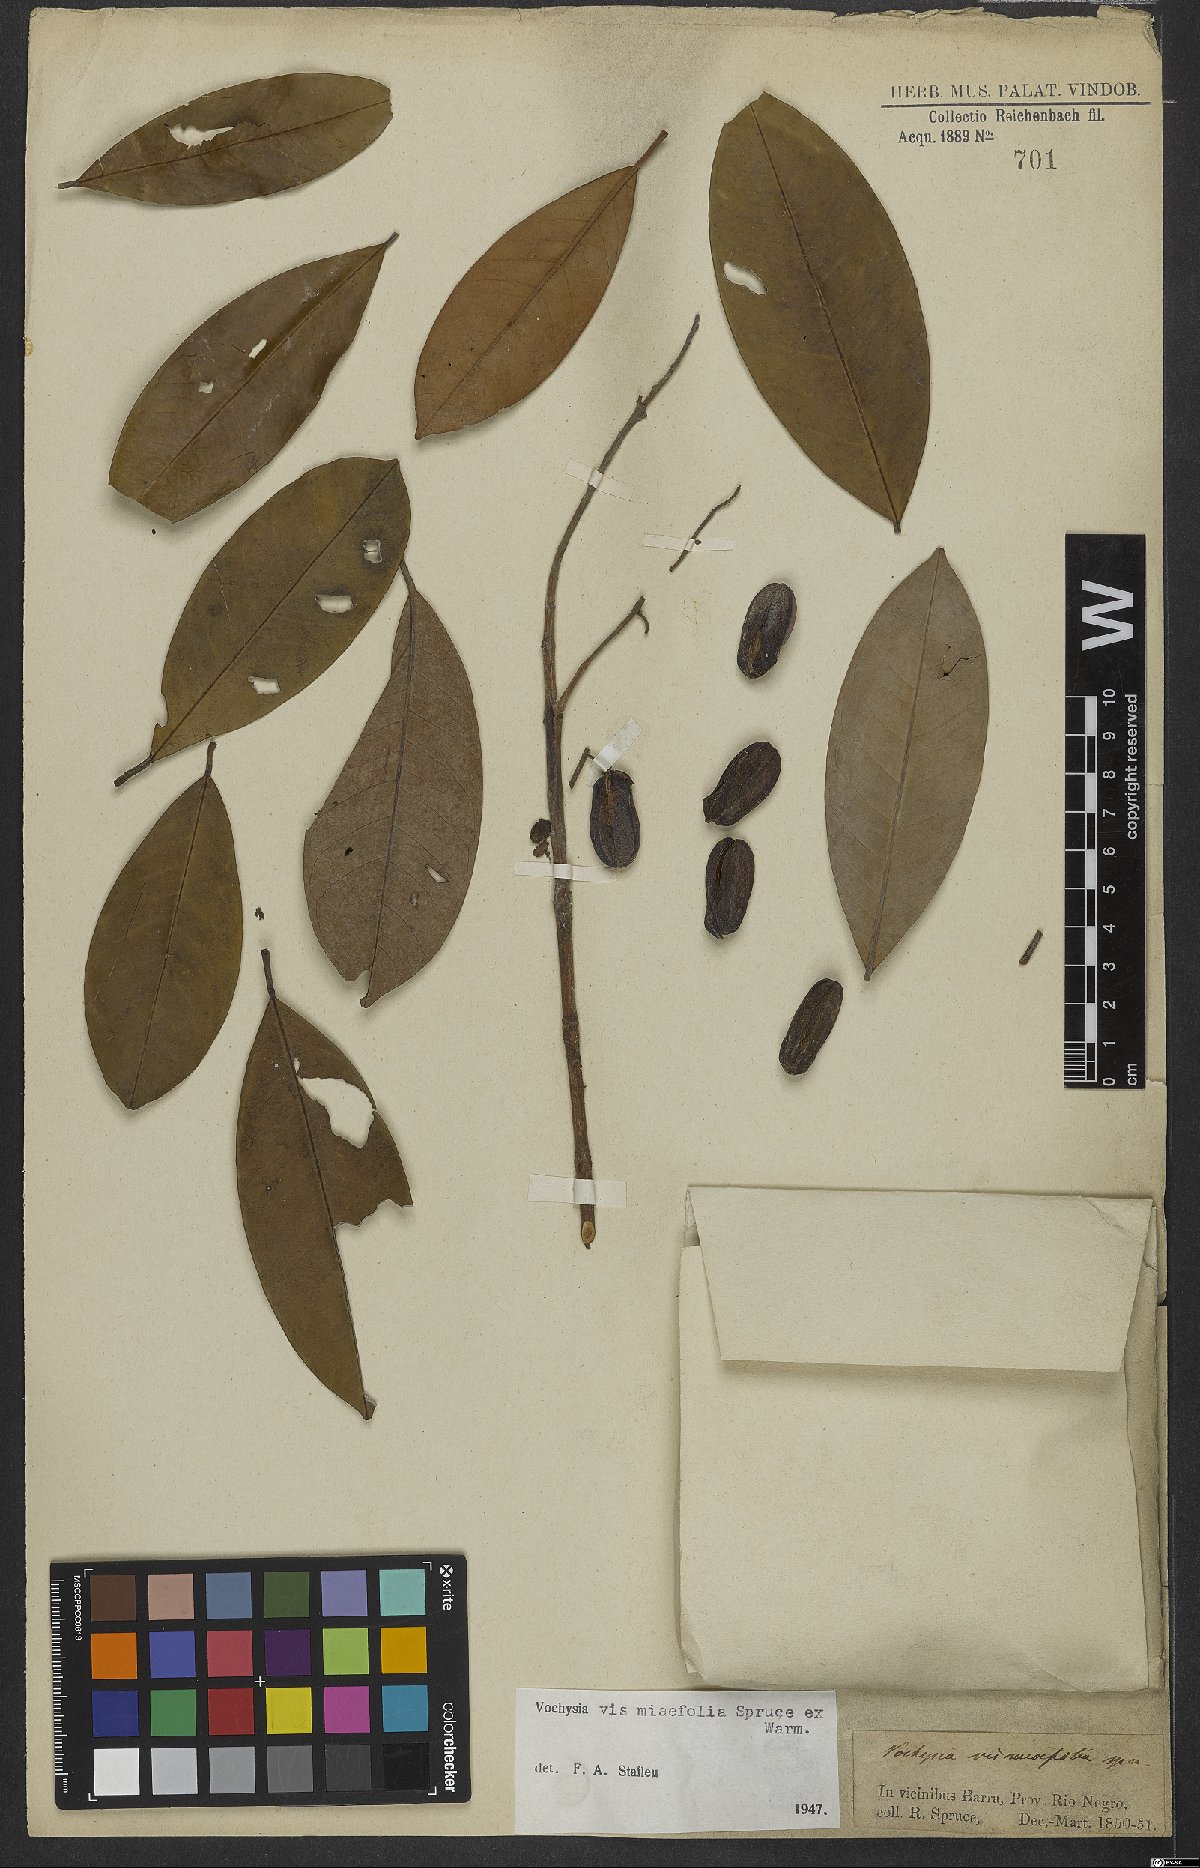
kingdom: Plantae
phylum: Tracheophyta
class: Magnoliopsida
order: Myrtales
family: Vochysiaceae
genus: Vochysia
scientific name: Vochysia vismiifolia
